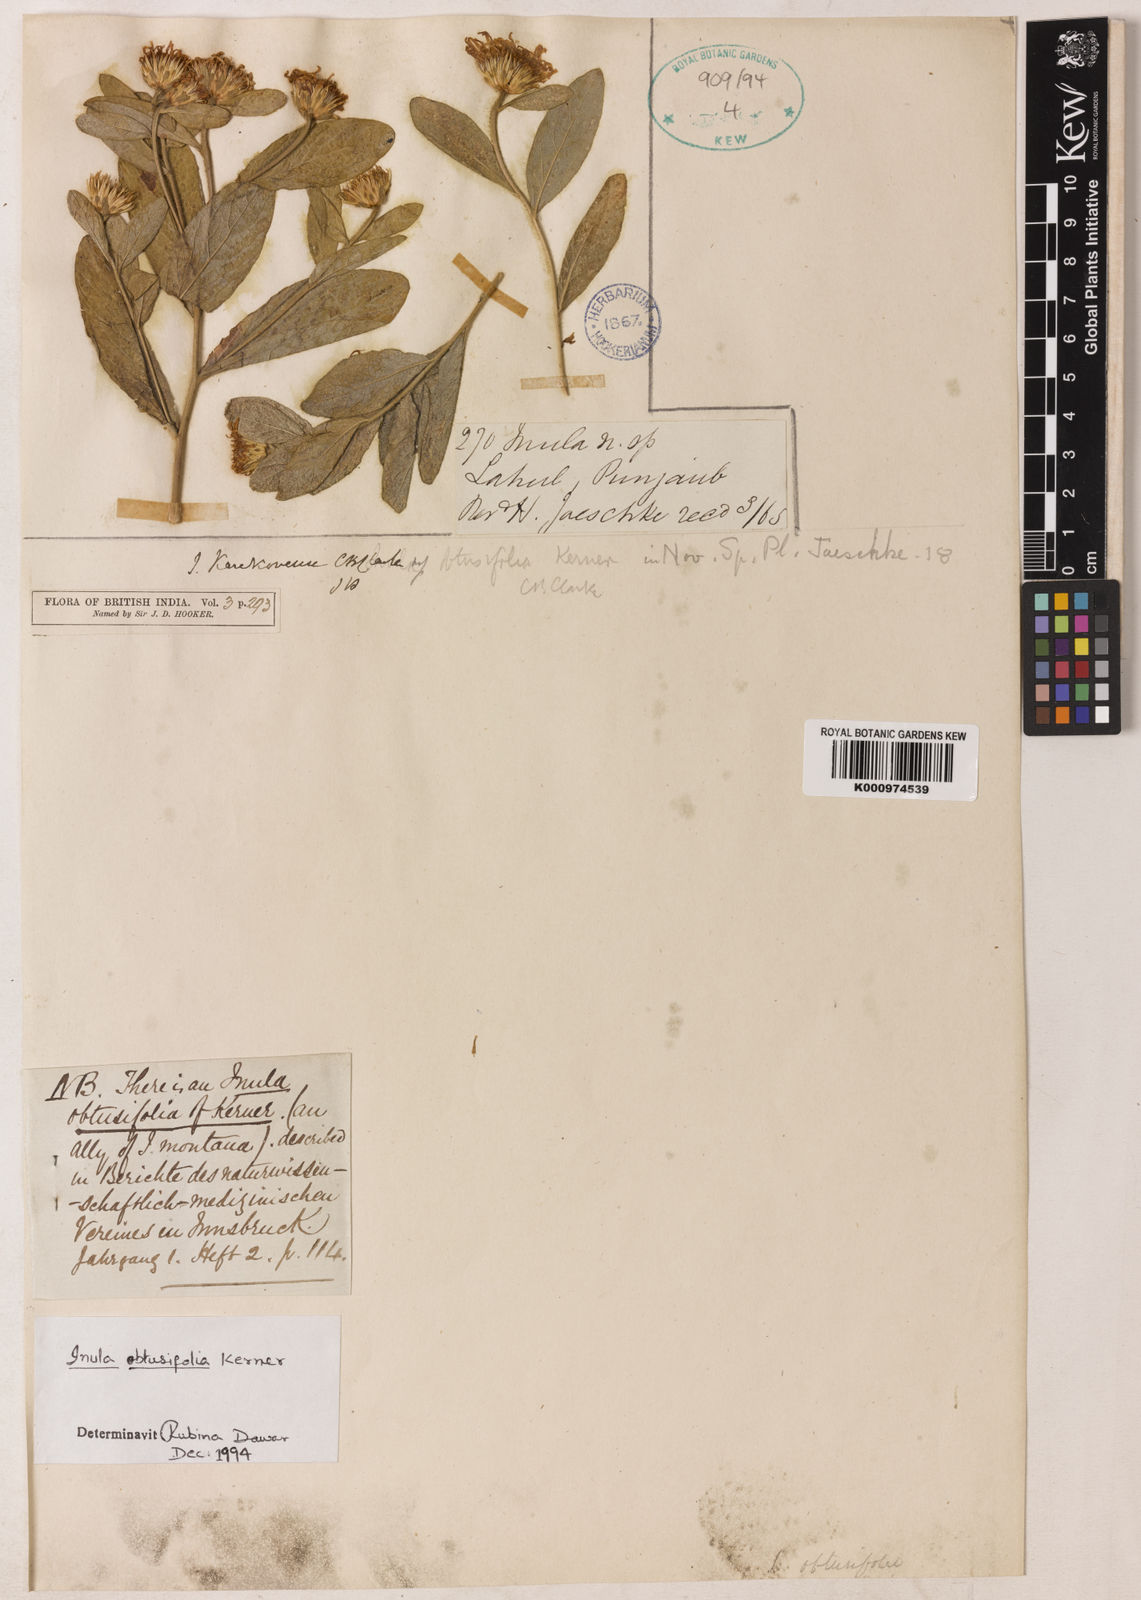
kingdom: Plantae
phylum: Tracheophyta
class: Magnoliopsida
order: Asterales
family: Asteraceae
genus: Inula
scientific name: Inula obtusifolia
